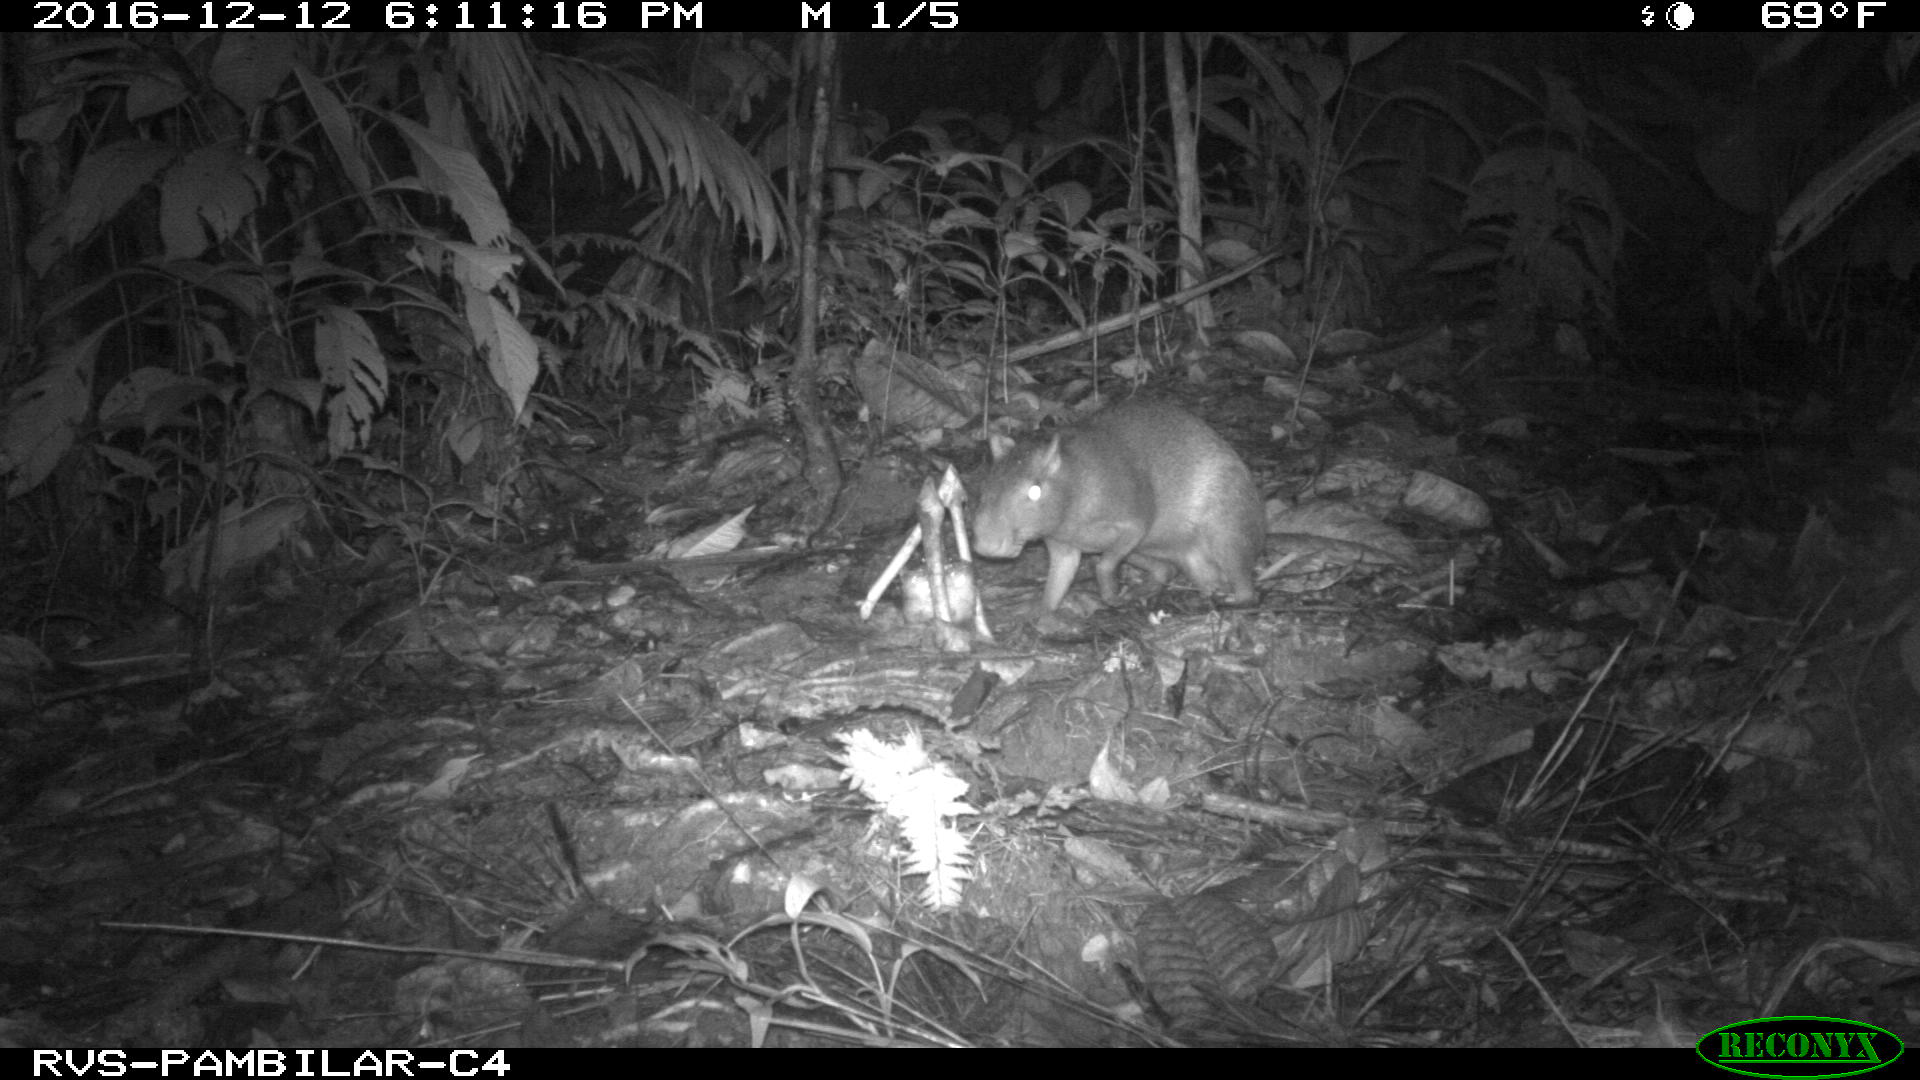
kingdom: Animalia
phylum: Chordata
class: Mammalia
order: Rodentia
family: Dasyproctidae
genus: Dasyprocta
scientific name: Dasyprocta punctata
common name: Central american agouti
